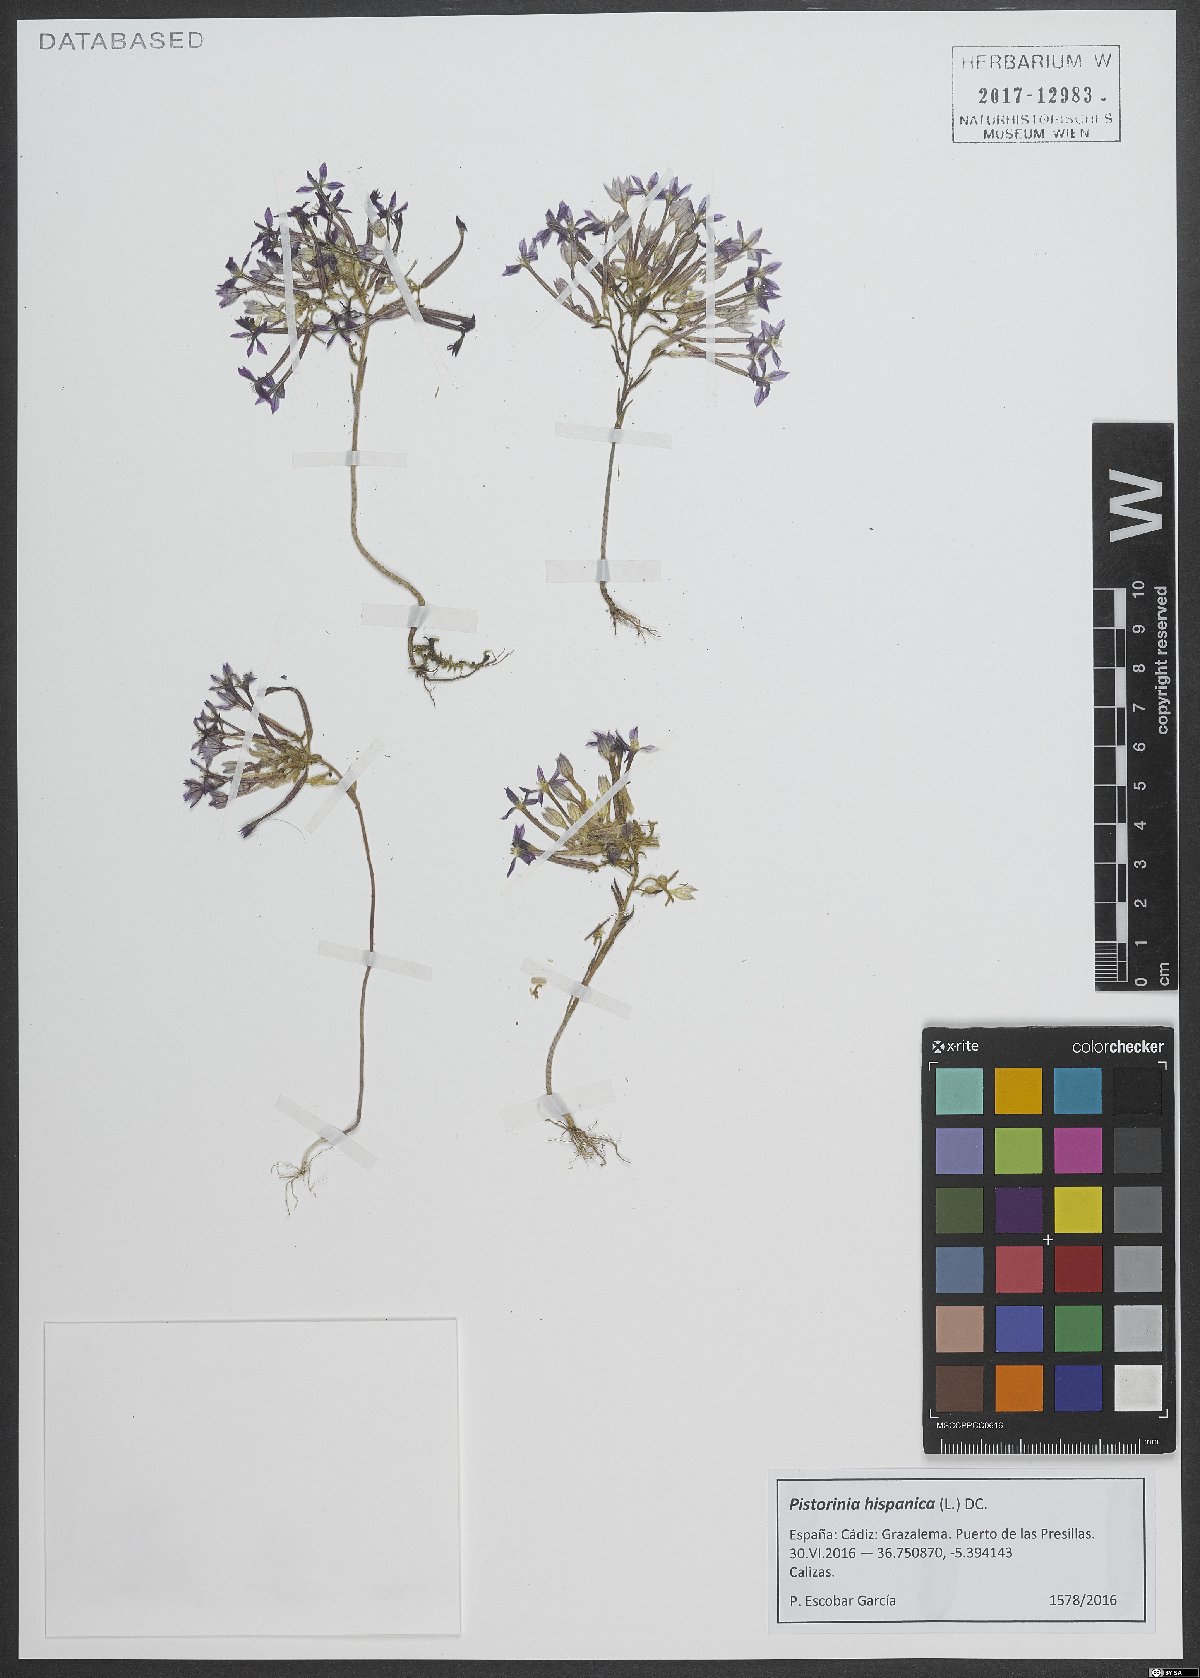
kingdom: Plantae
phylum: Tracheophyta
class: Magnoliopsida
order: Saxifragales
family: Crassulaceae
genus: Pistorinia
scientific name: Pistorinia hispanica
